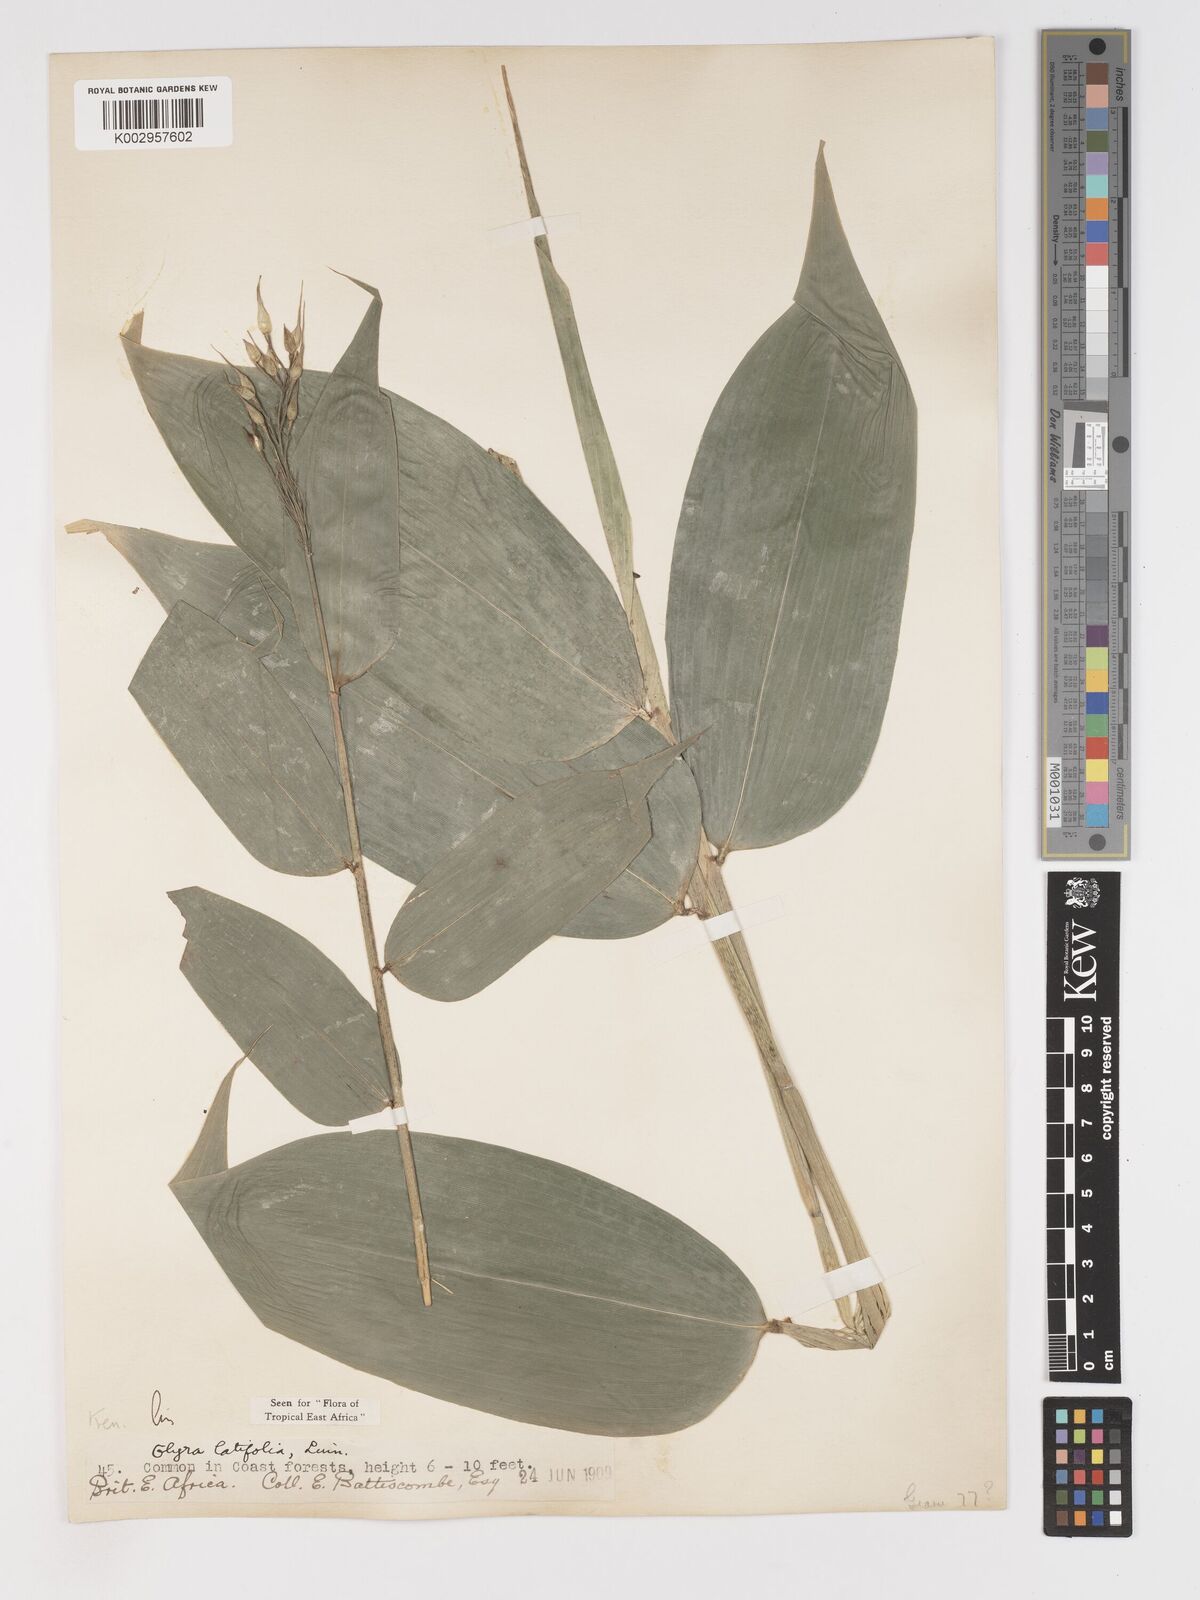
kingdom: Plantae
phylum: Tracheophyta
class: Liliopsida
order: Poales
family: Poaceae
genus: Olyra
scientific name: Olyra latifolia
